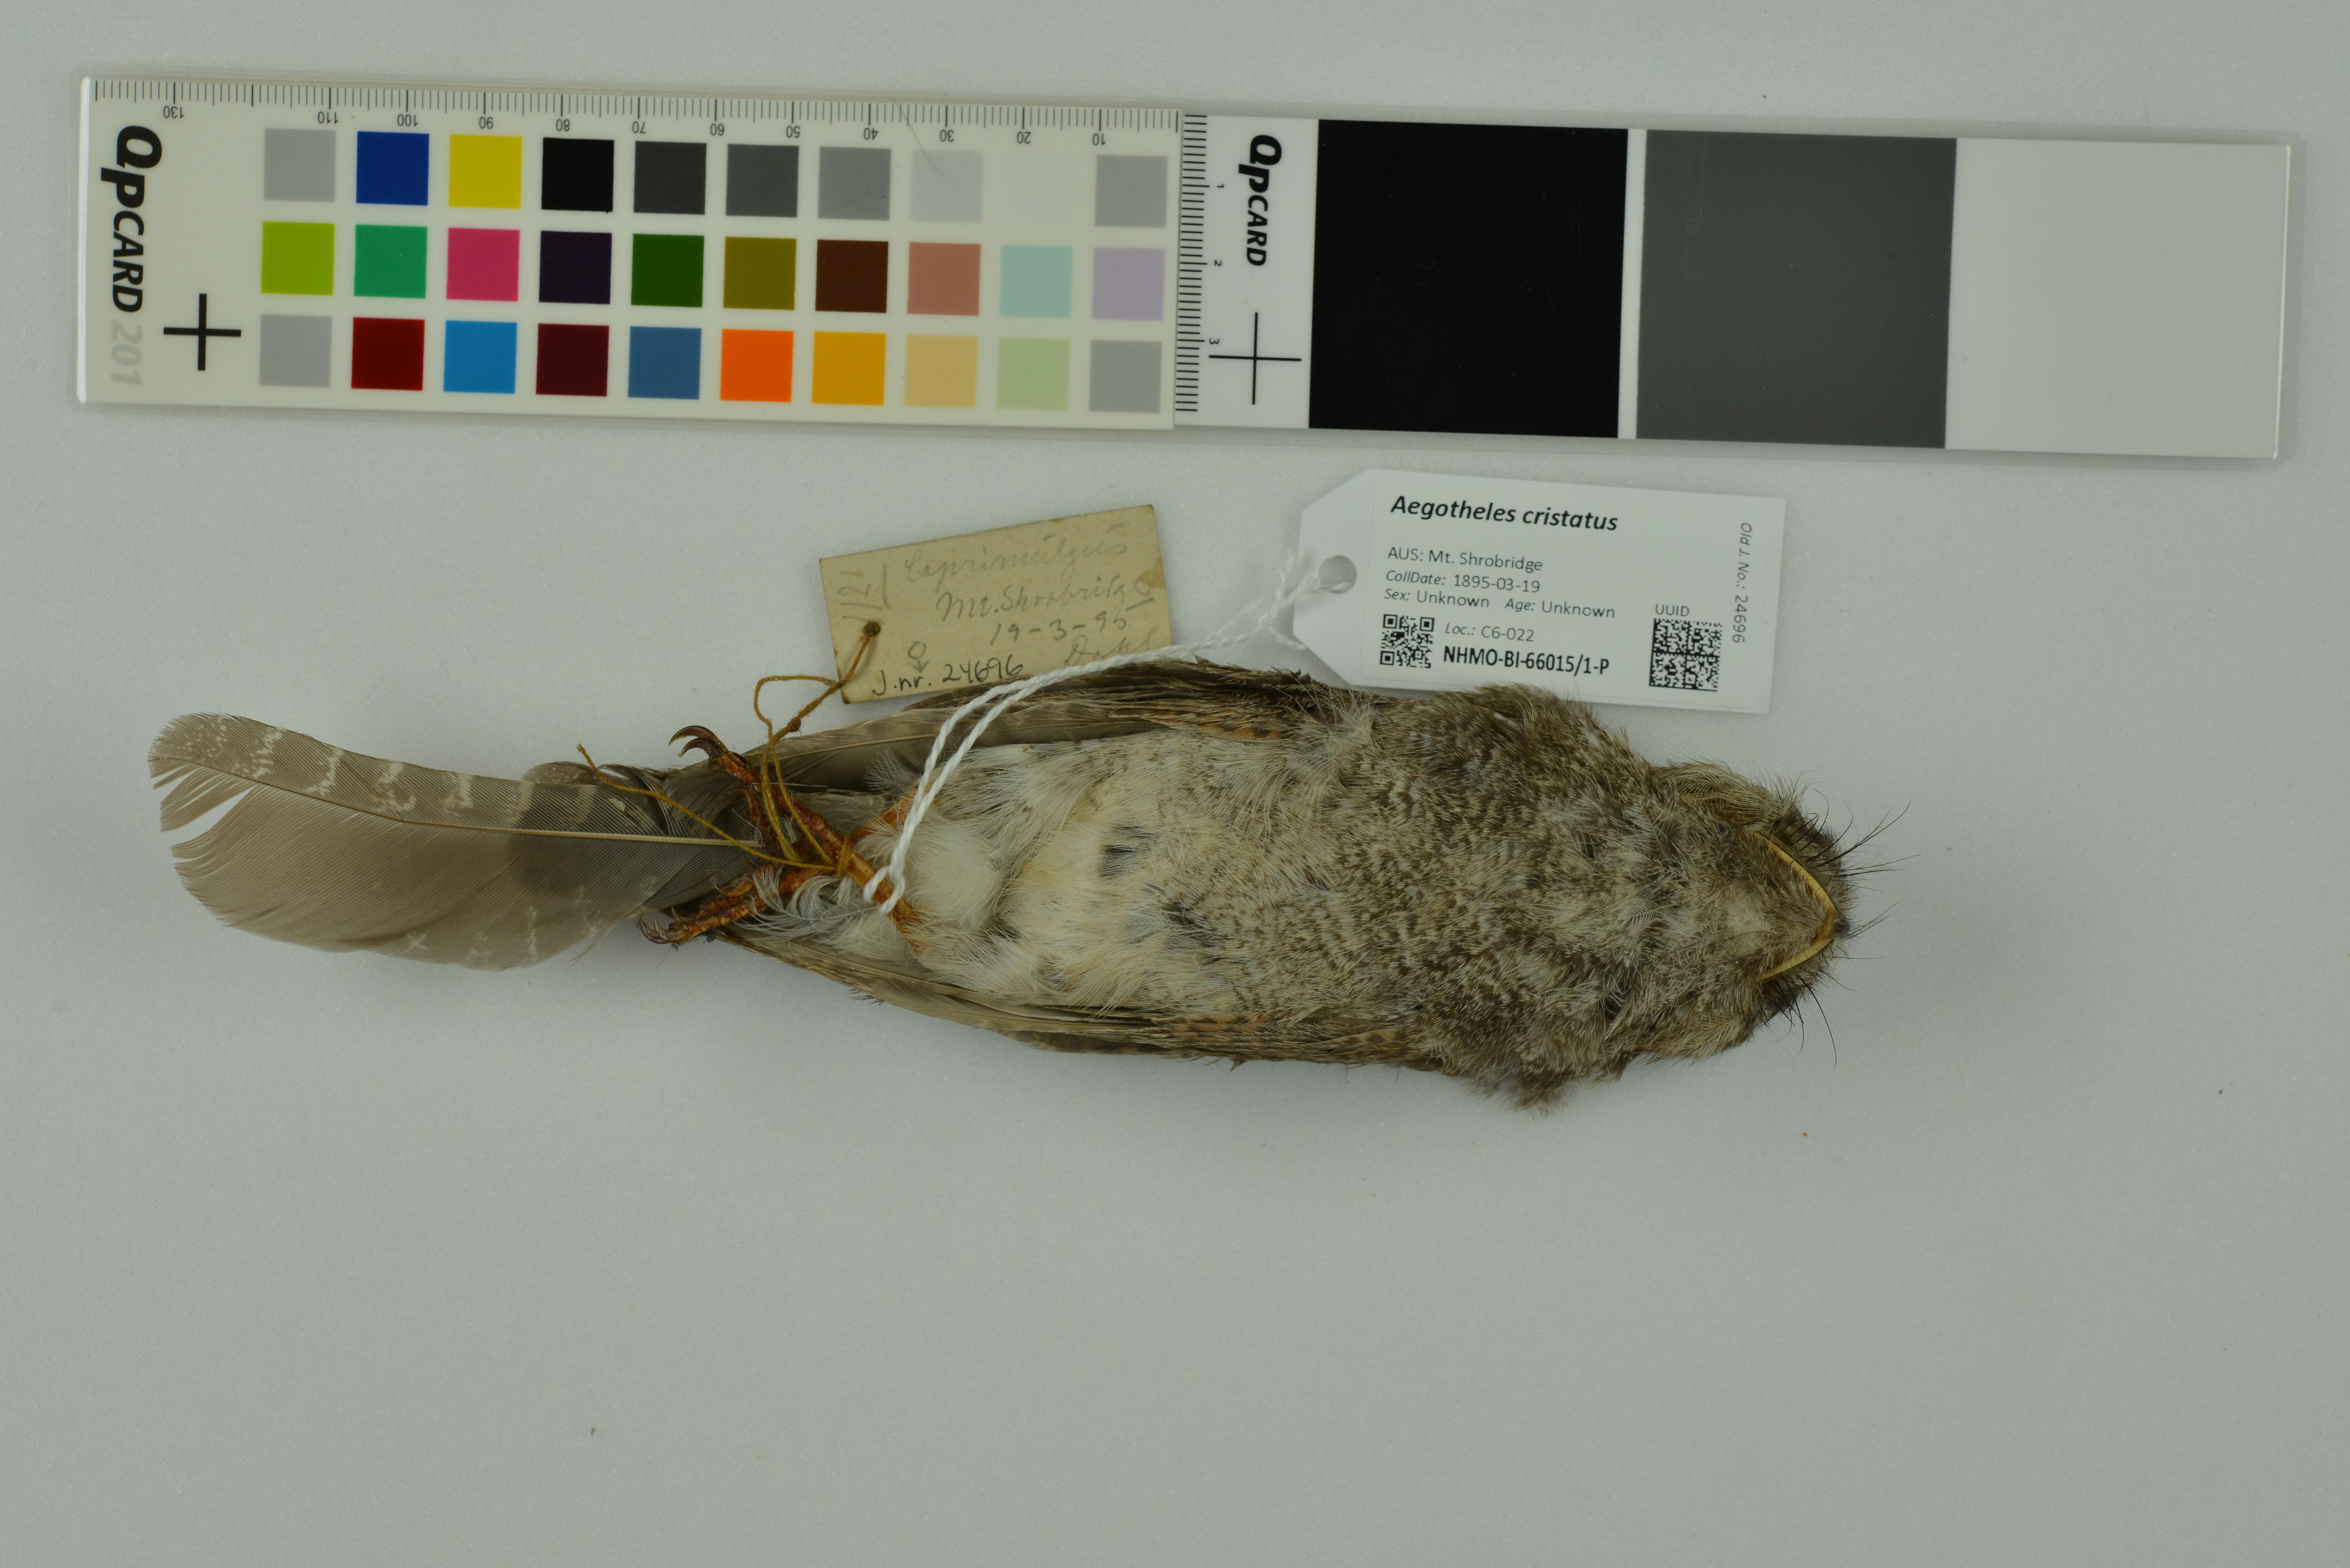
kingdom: Animalia
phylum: Chordata
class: Aves
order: Apodiformes
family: Aegothelidae
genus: Aegotheles
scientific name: Aegotheles cristatus
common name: Australian owlet-nightjar
